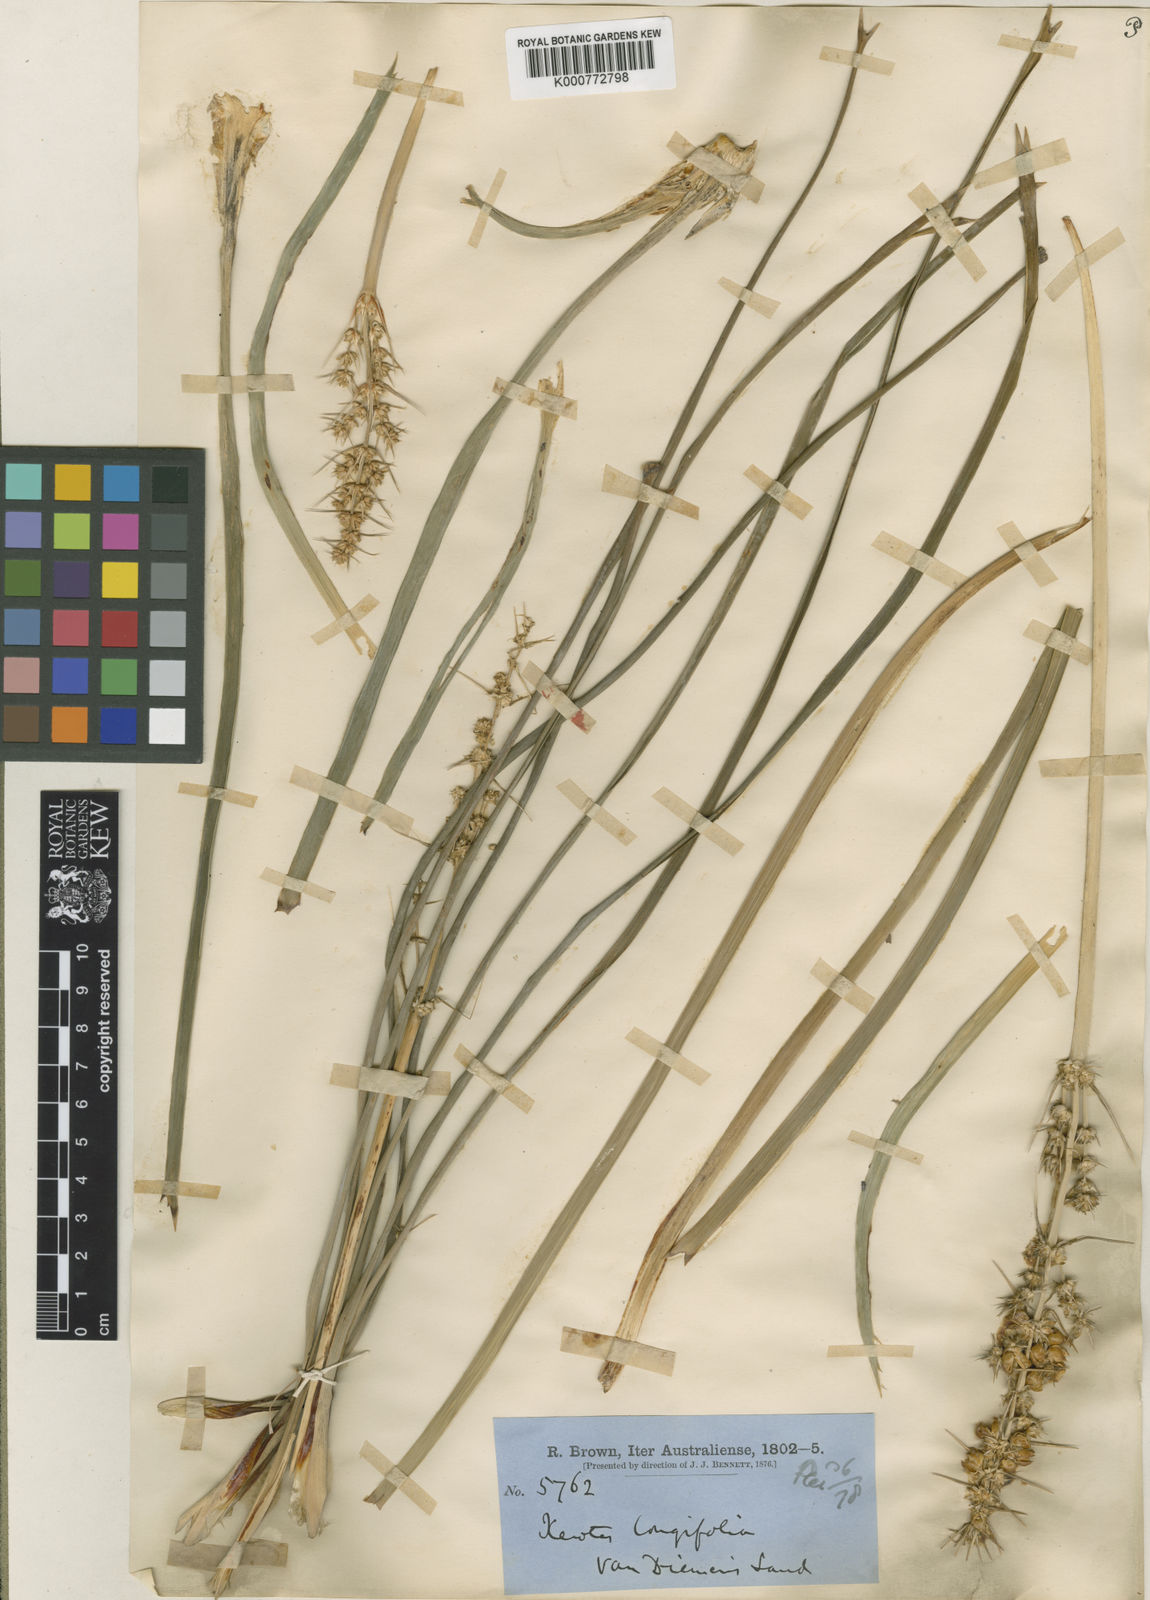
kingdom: Plantae
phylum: Tracheophyta
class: Liliopsida
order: Asparagales
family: Asparagaceae
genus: Lomandra
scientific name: Lomandra longifolia
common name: Longleaf mat-rush
